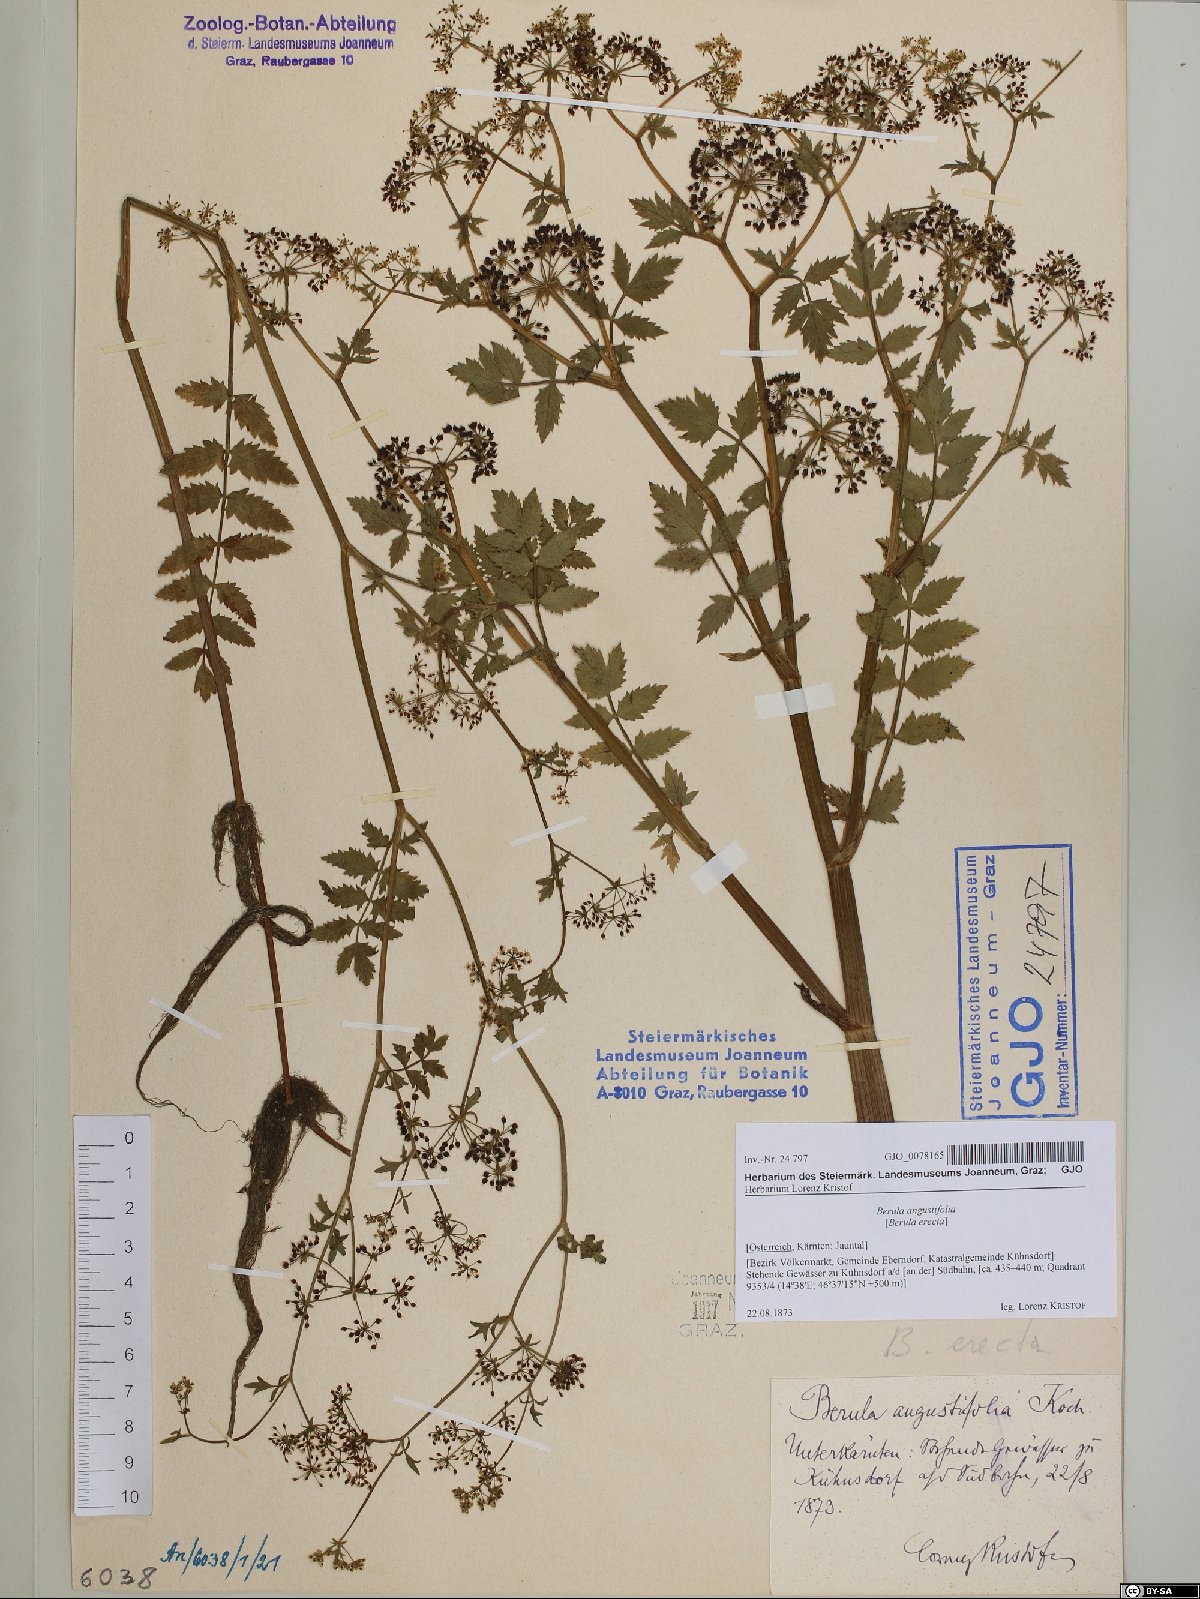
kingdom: Plantae
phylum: Tracheophyta
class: Magnoliopsida
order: Apiales
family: Apiaceae
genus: Berula
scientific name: Berula erecta
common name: Lesser water-parsnip
